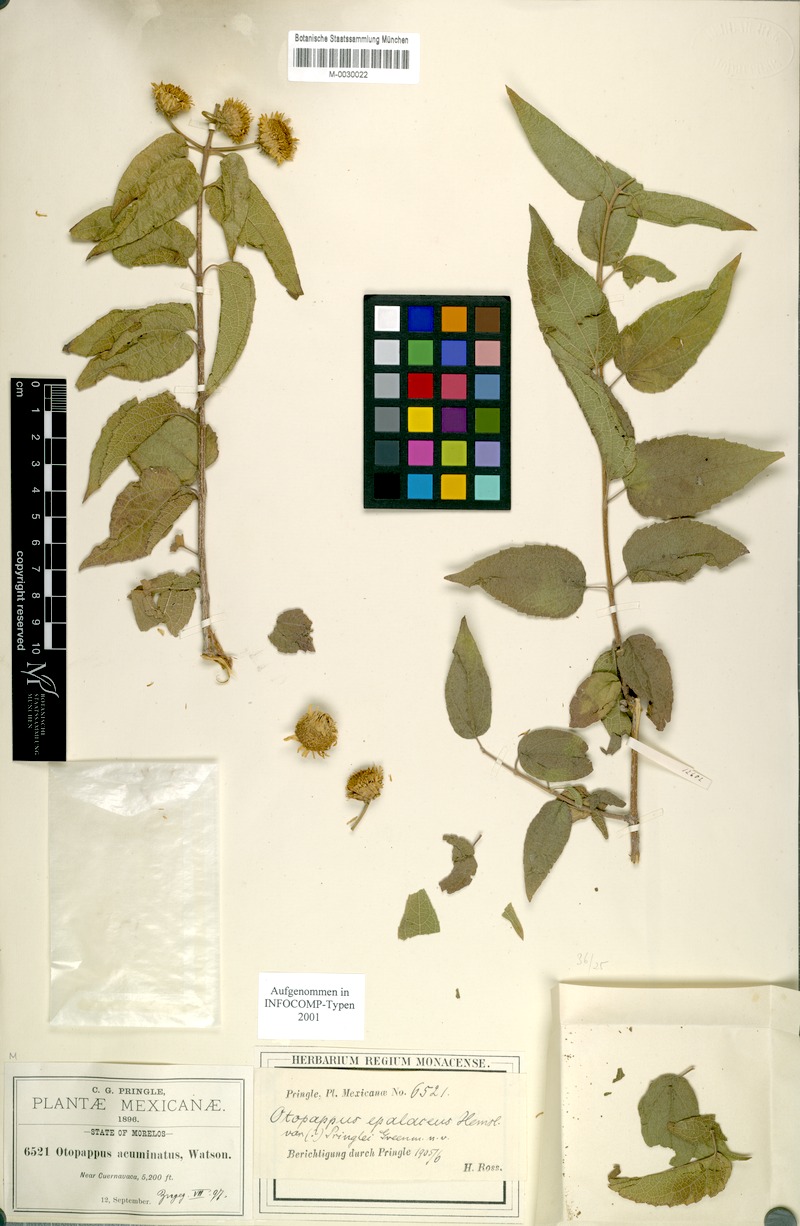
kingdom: Plantae
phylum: Tracheophyta
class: Magnoliopsida
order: Asterales
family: Asteraceae
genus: Otopappus
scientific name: Otopappus imbricatus
